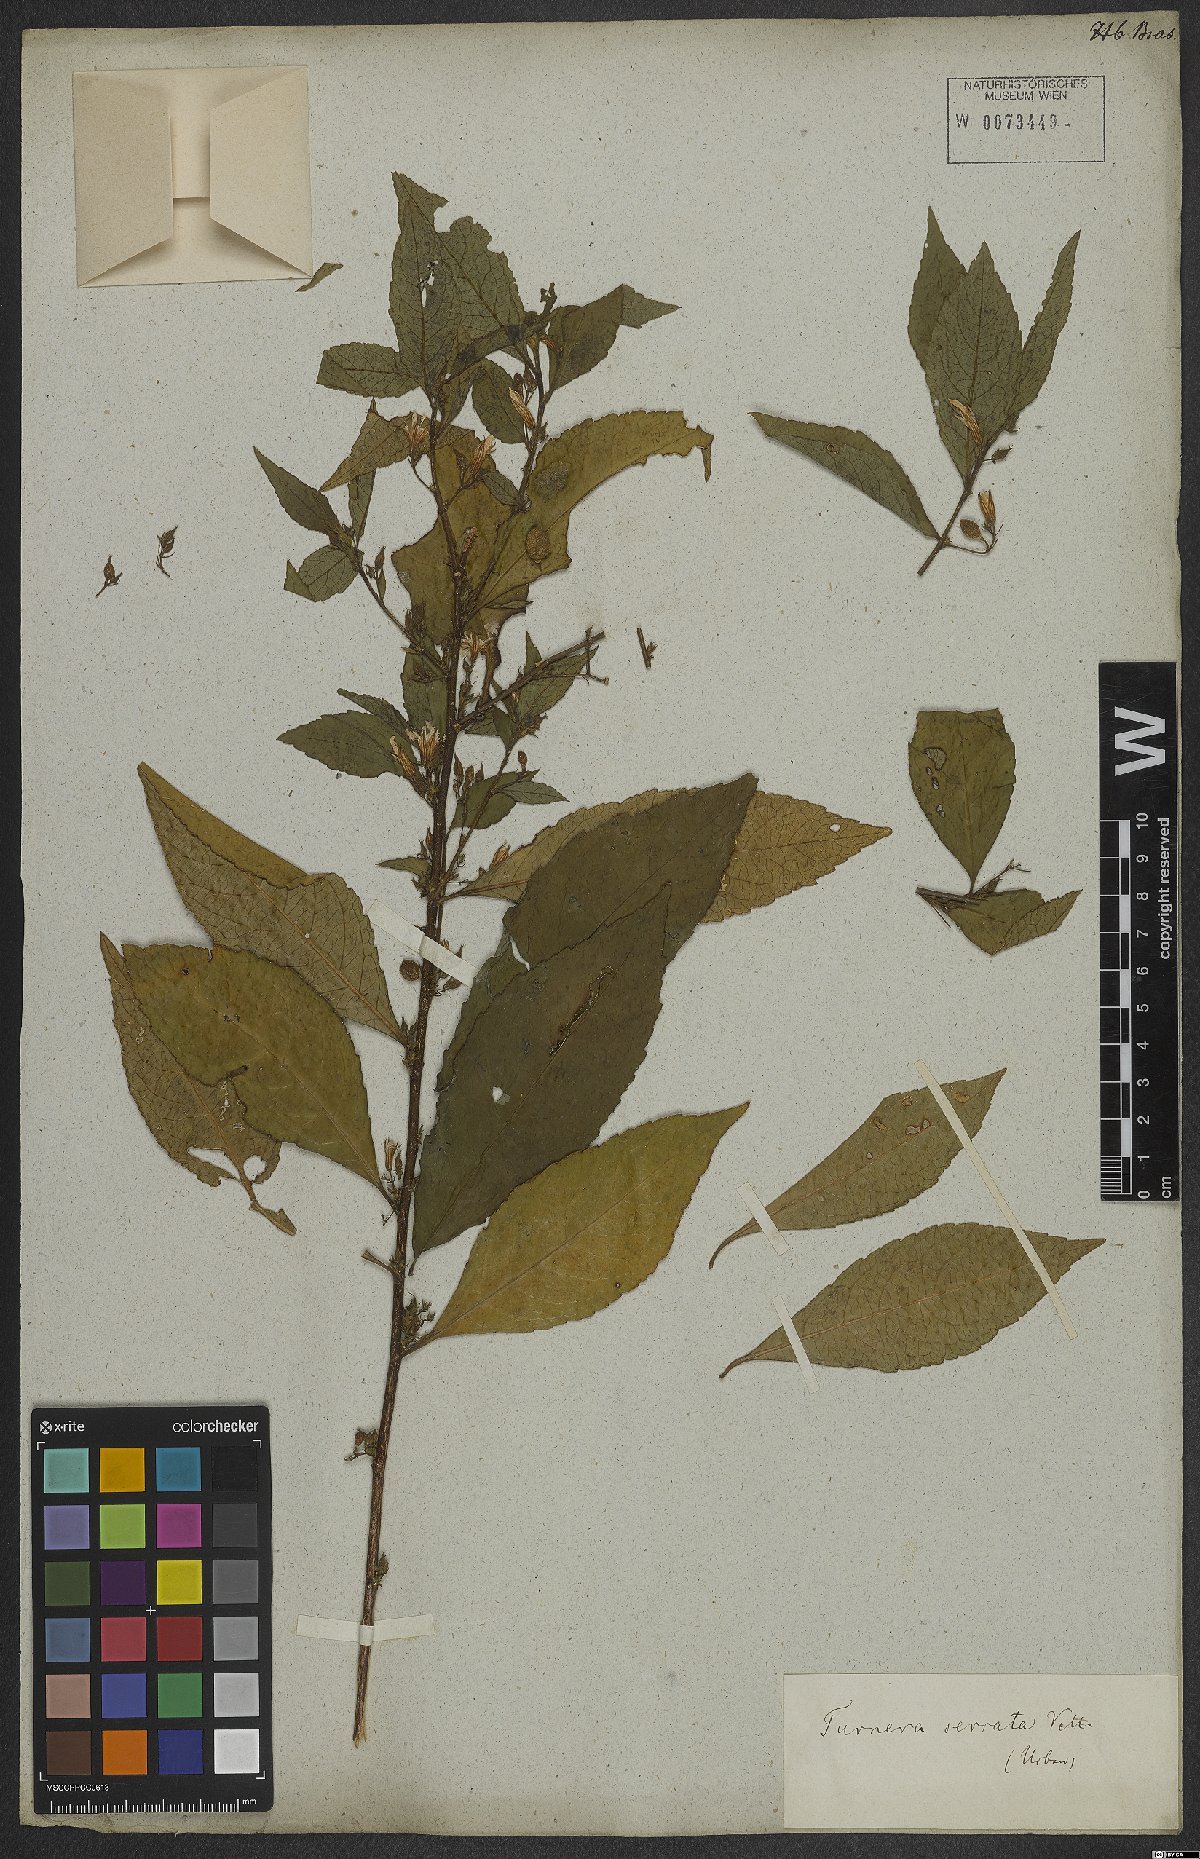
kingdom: Plantae
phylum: Tracheophyta
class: Magnoliopsida
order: Malpighiales
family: Turneraceae
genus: Turnera
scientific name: Turnera serrata
